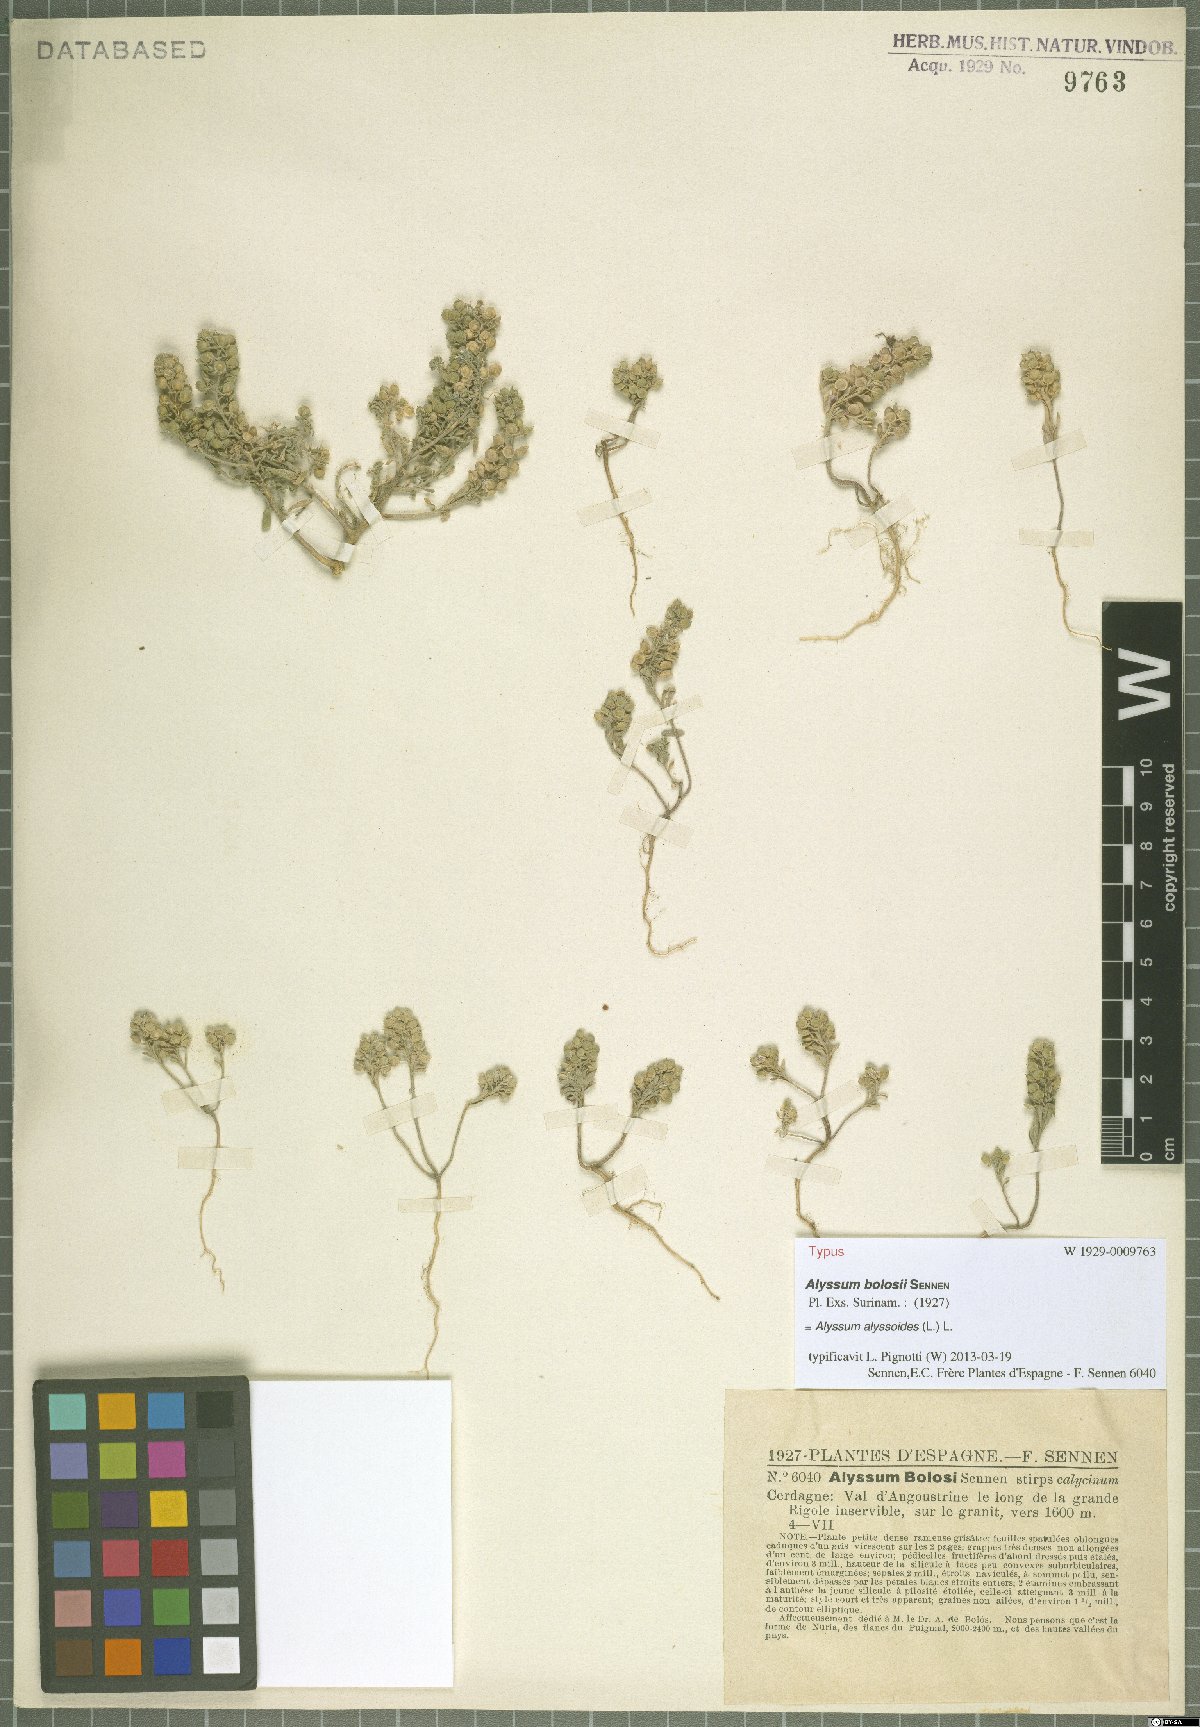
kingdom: Plantae
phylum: Tracheophyta
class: Magnoliopsida
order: Brassicales
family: Brassicaceae
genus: Alyssum
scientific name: Alyssum alyssoides
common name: Small alison
